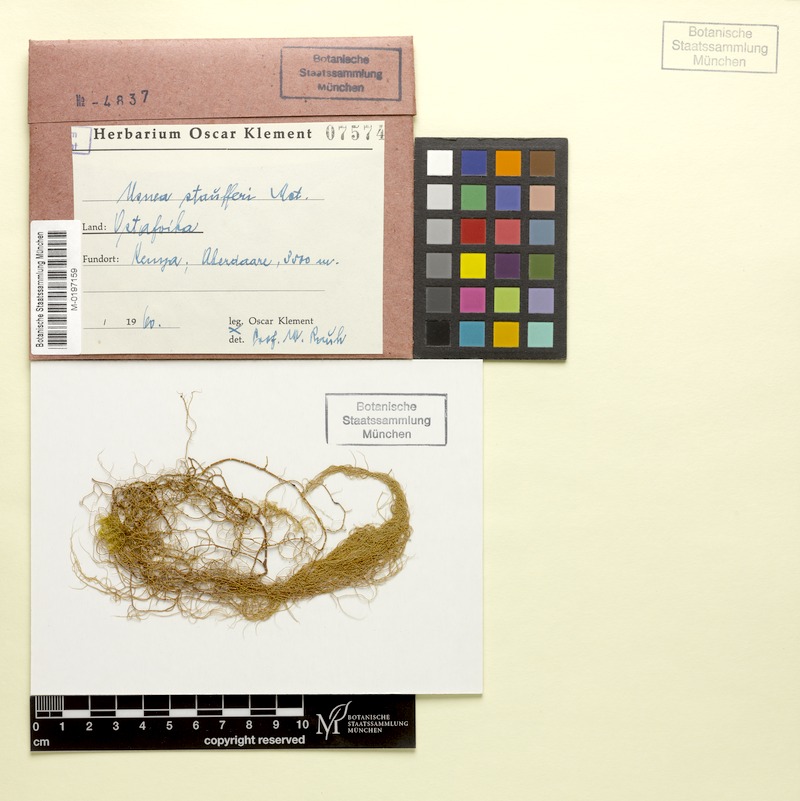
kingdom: Fungi
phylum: Ascomycota
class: Lecanoromycetes
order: Lecanorales
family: Parmeliaceae
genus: Usnea
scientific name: Usnea
